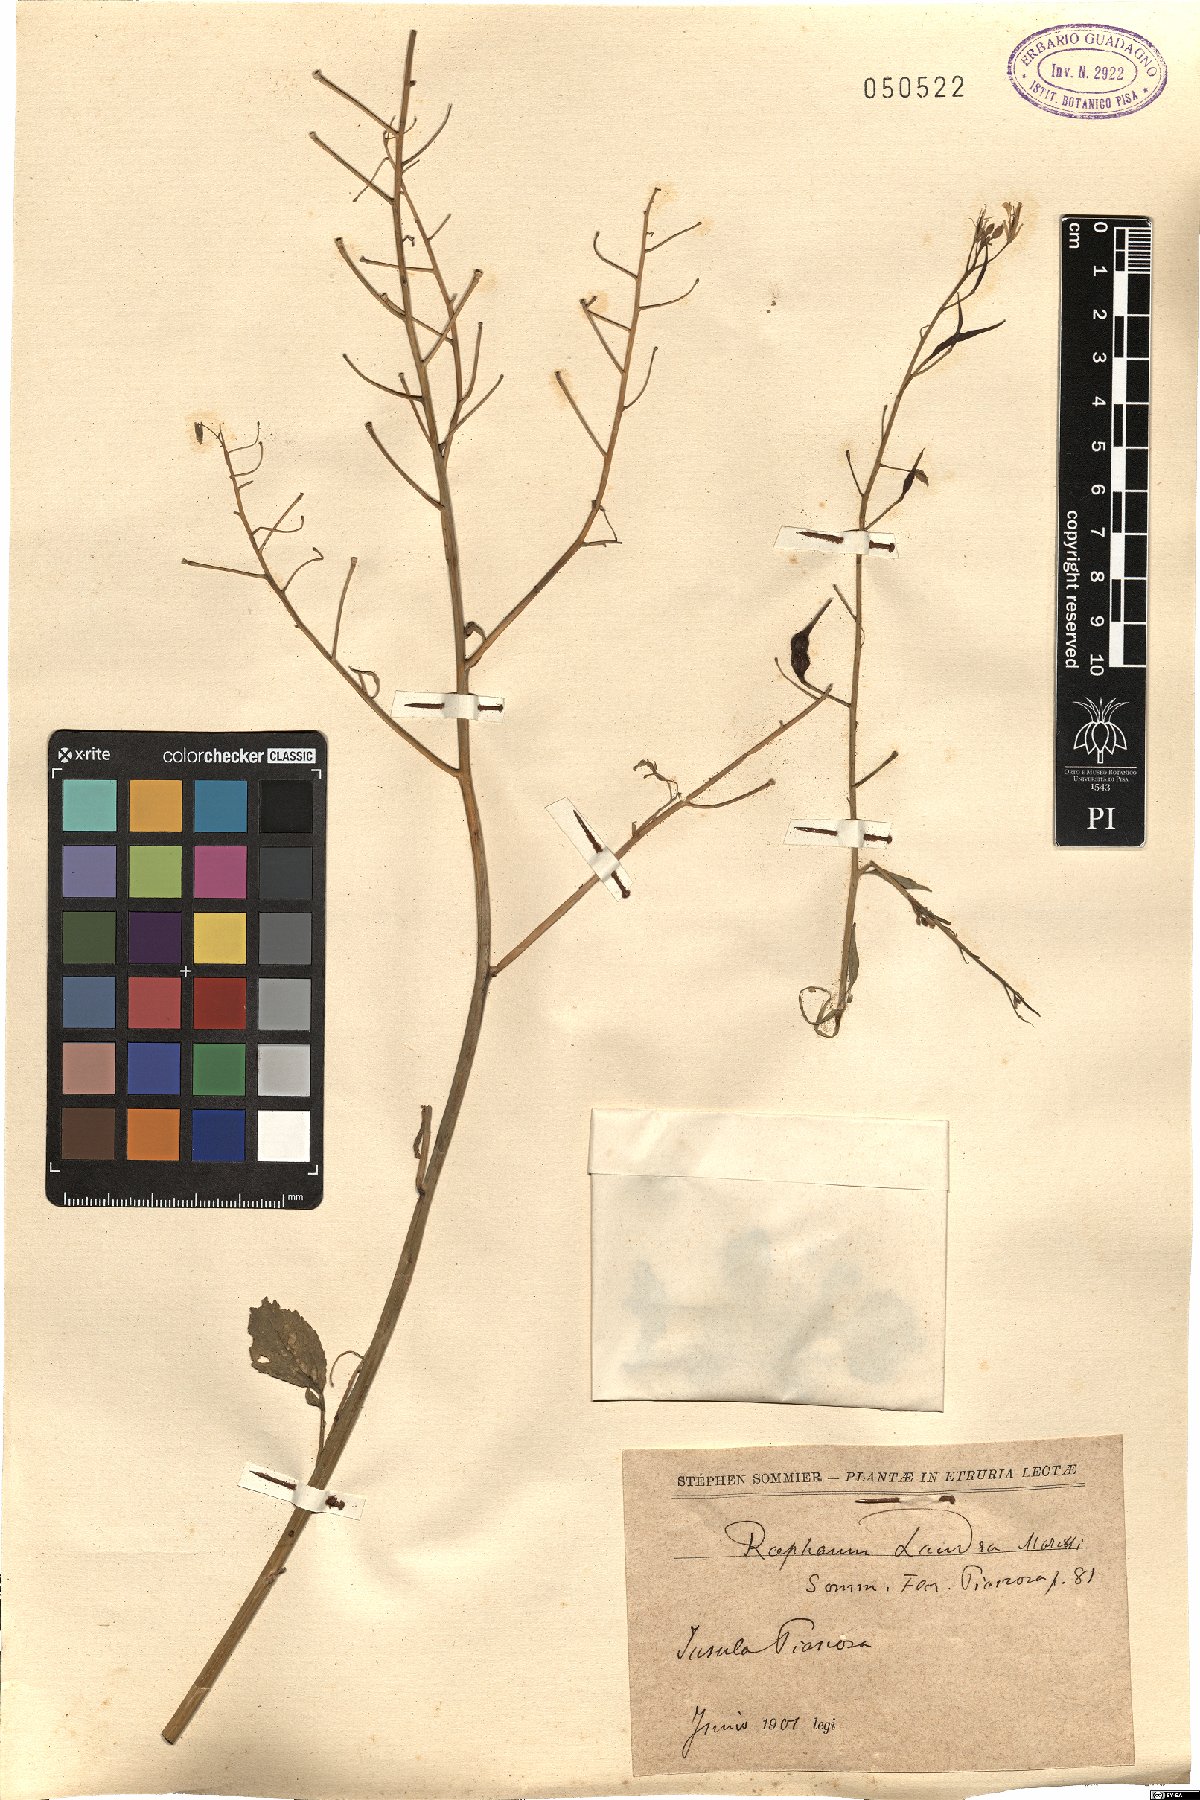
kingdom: Plantae
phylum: Tracheophyta
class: Magnoliopsida
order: Brassicales
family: Brassicaceae
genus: Raphanus
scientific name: Raphanus raphanistrum
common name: Wild radish
